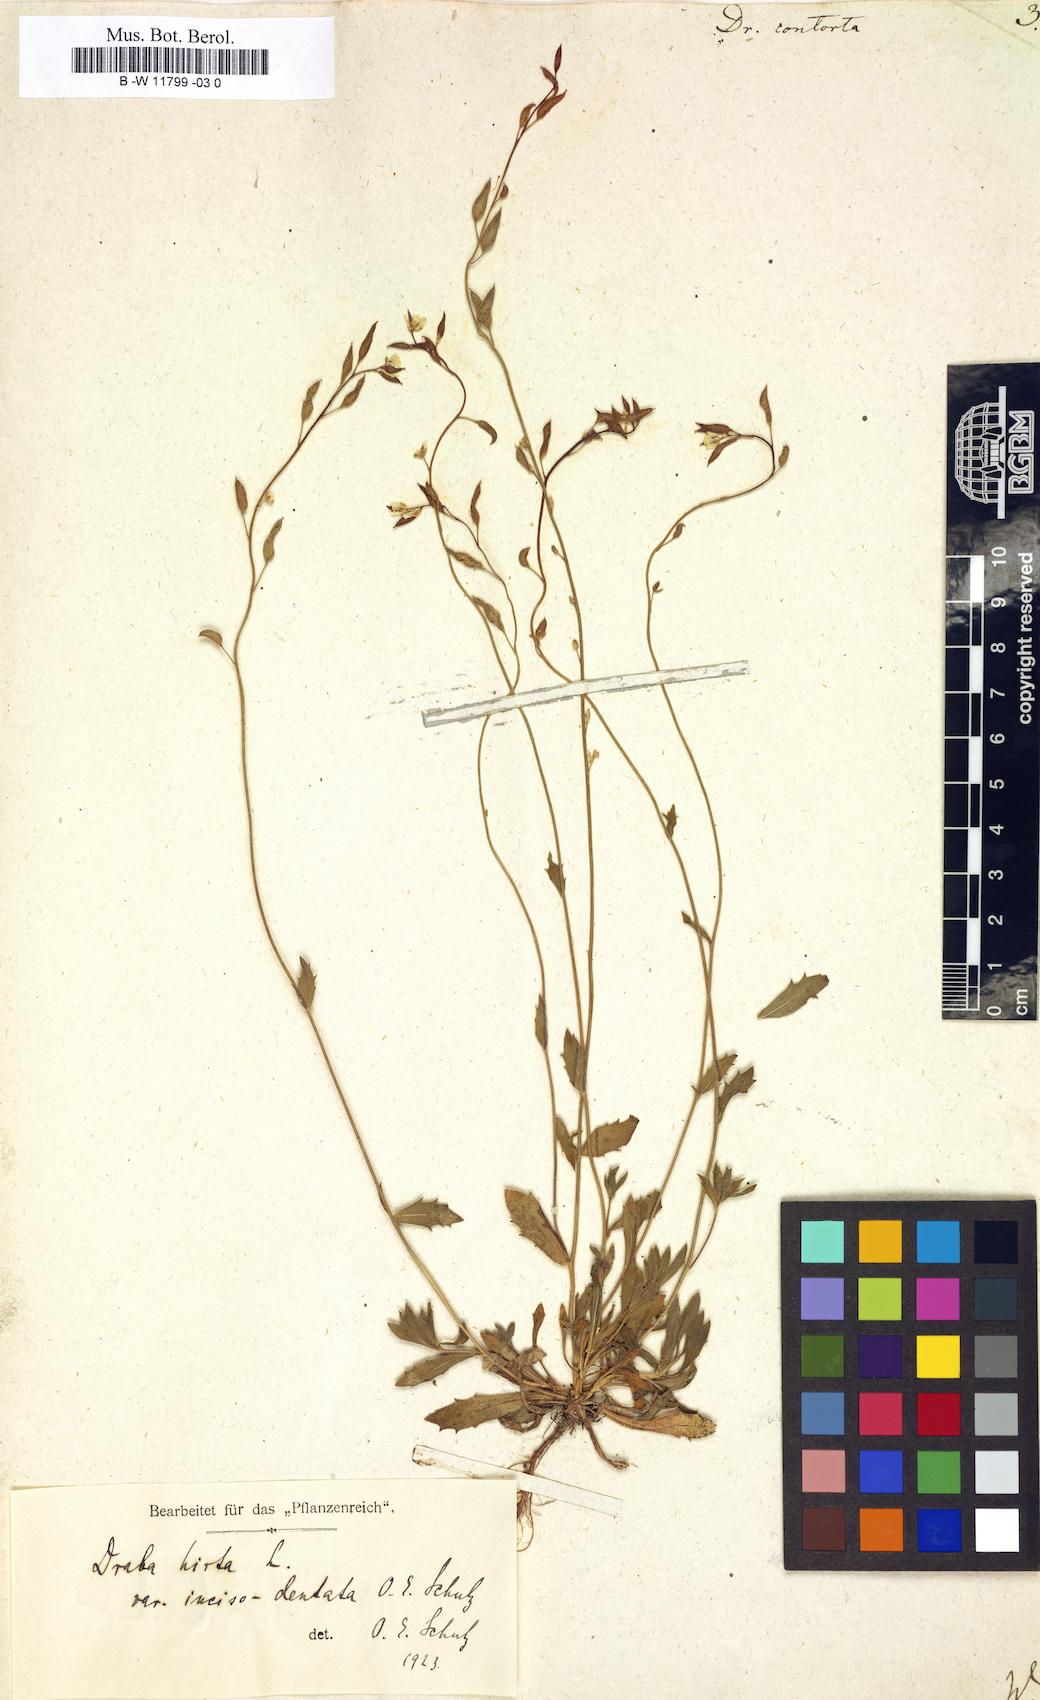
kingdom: Plantae
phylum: Tracheophyta
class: Magnoliopsida
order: Brassicales
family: Brassicaceae
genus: Draba
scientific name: Draba incana
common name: Hoary whitlow-grass
